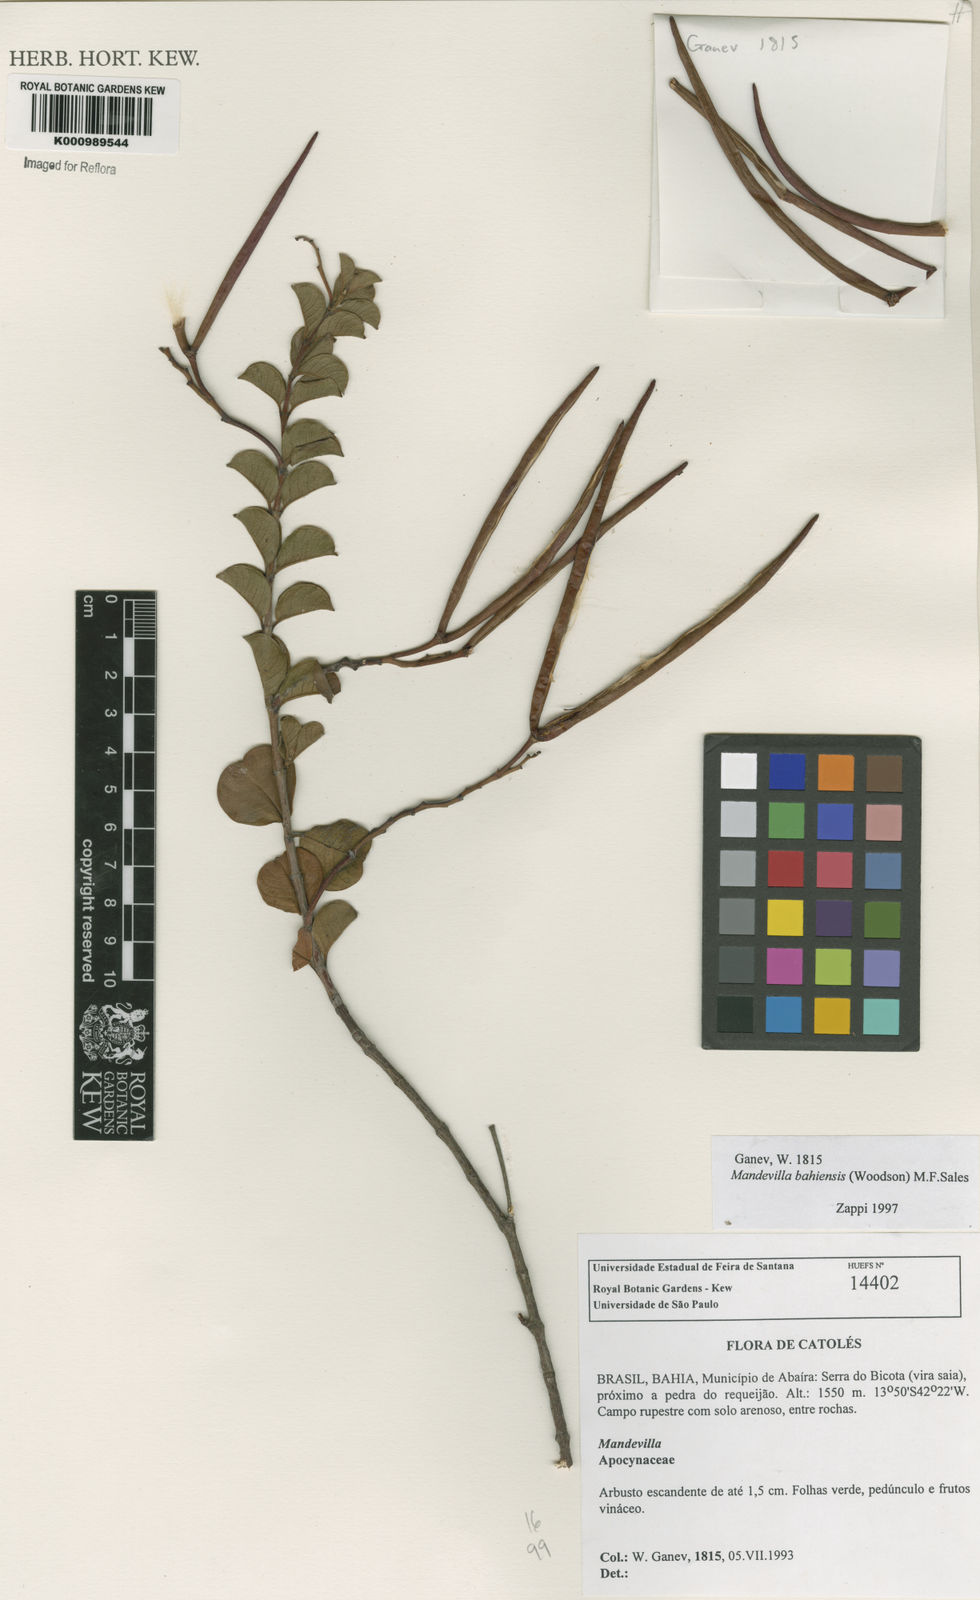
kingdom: Plantae
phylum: Tracheophyta
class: Magnoliopsida
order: Gentianales
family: Apocynaceae
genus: Mandevilla
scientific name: Mandevilla bahiensis
